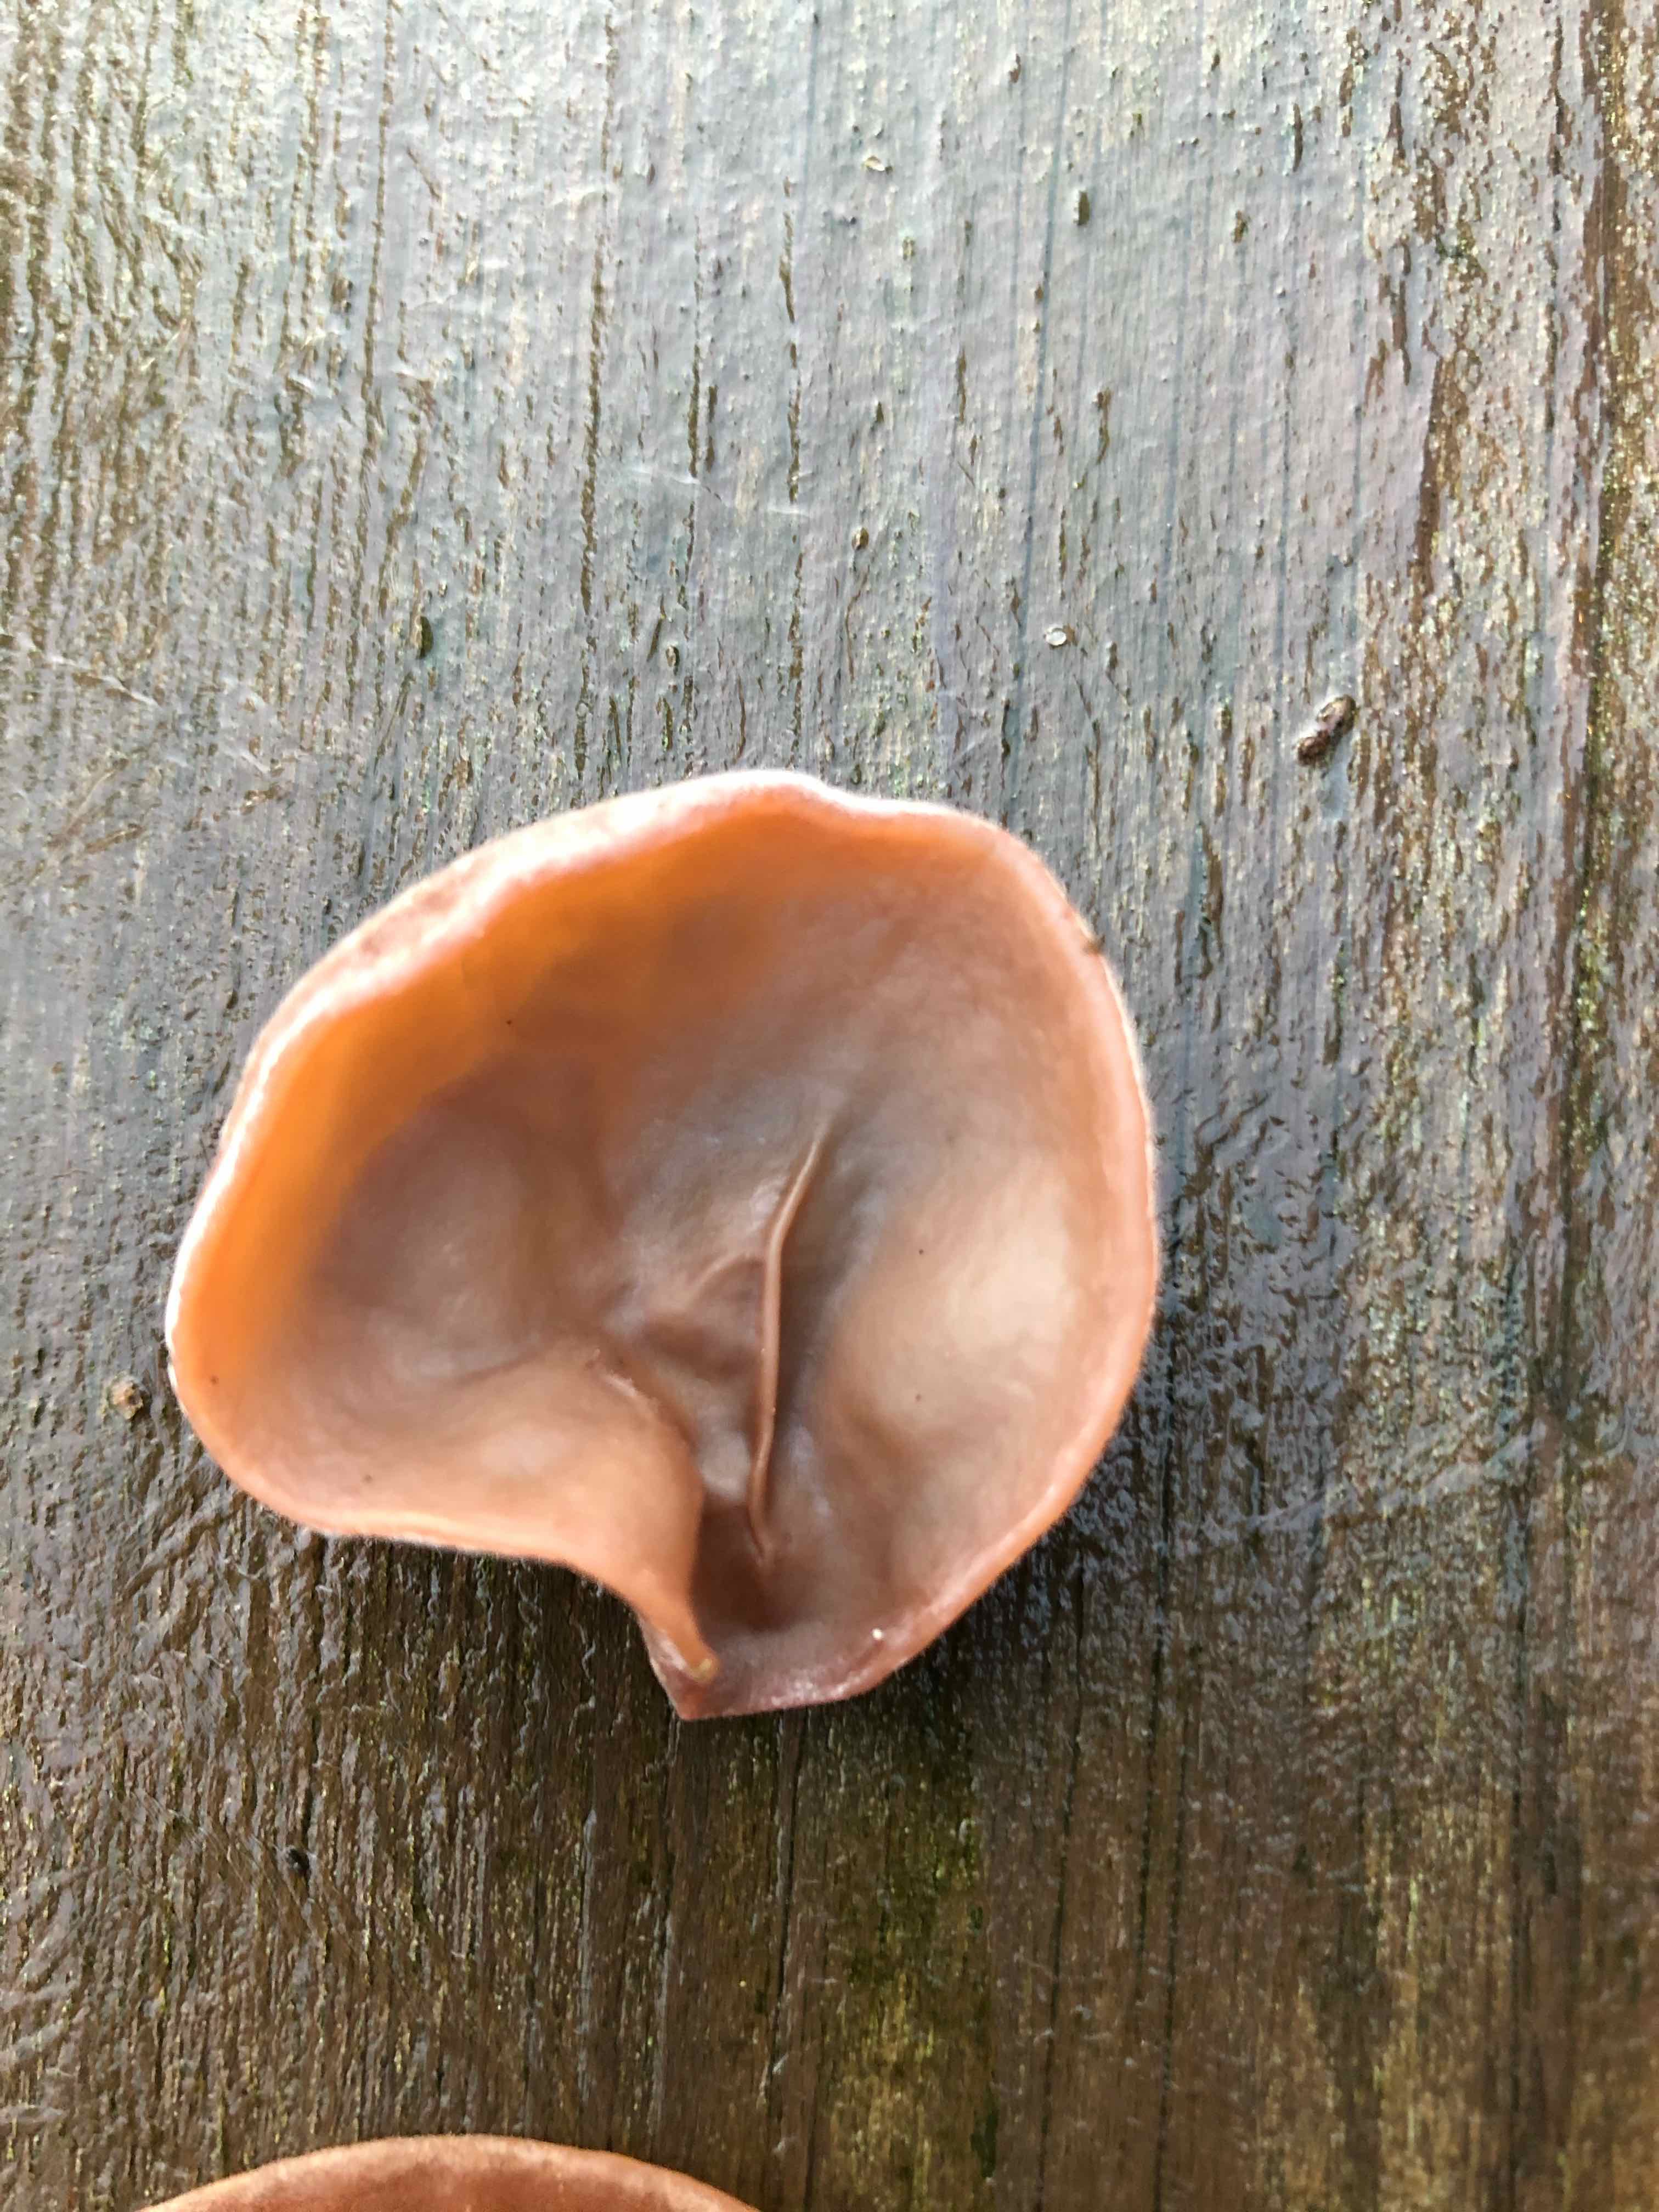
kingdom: Fungi
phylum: Basidiomycota
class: Agaricomycetes
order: Auriculariales
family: Auriculariaceae
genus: Auricularia
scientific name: Auricularia auricula-judae
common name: almindelig judasøre
